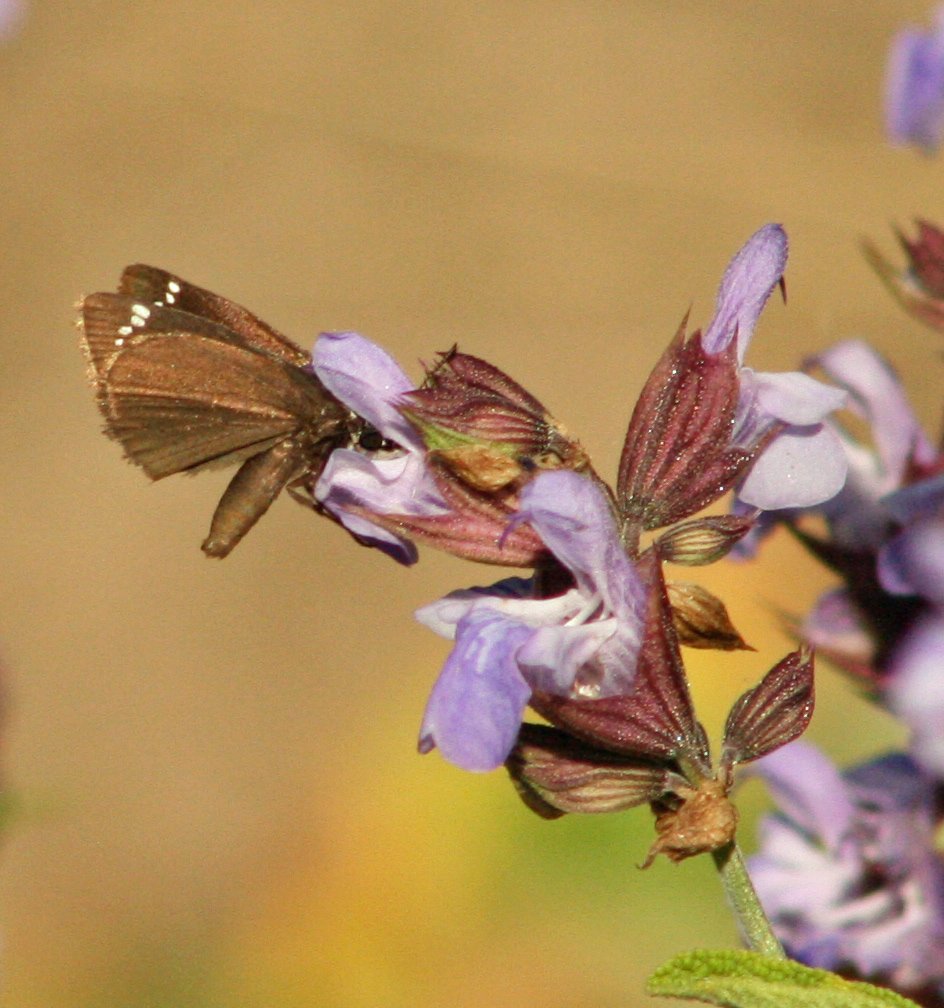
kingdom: Animalia
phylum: Arthropoda
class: Insecta
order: Lepidoptera
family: Hesperiidae
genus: Pholisora
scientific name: Pholisora catullus
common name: Common Sootywing
